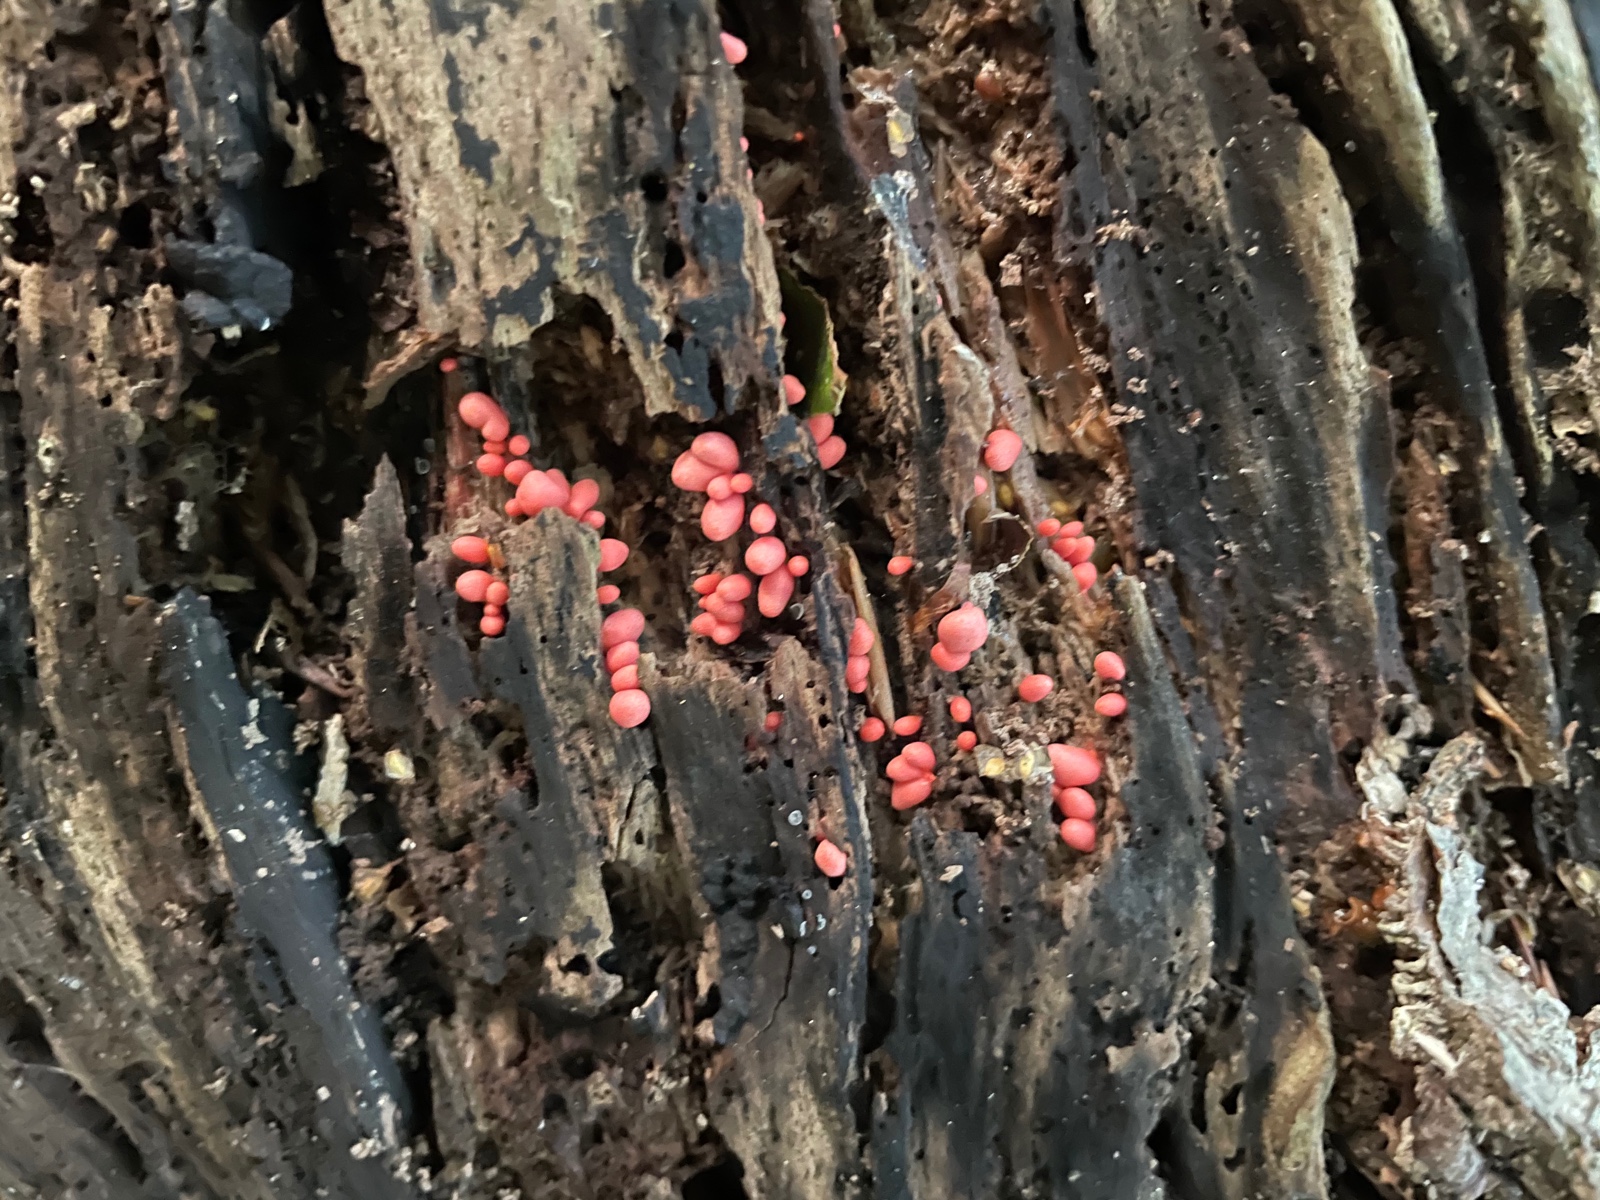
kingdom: Protozoa
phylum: Mycetozoa
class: Myxomycetes
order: Cribrariales
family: Tubiferaceae
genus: Lycogala
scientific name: Lycogala conicum
